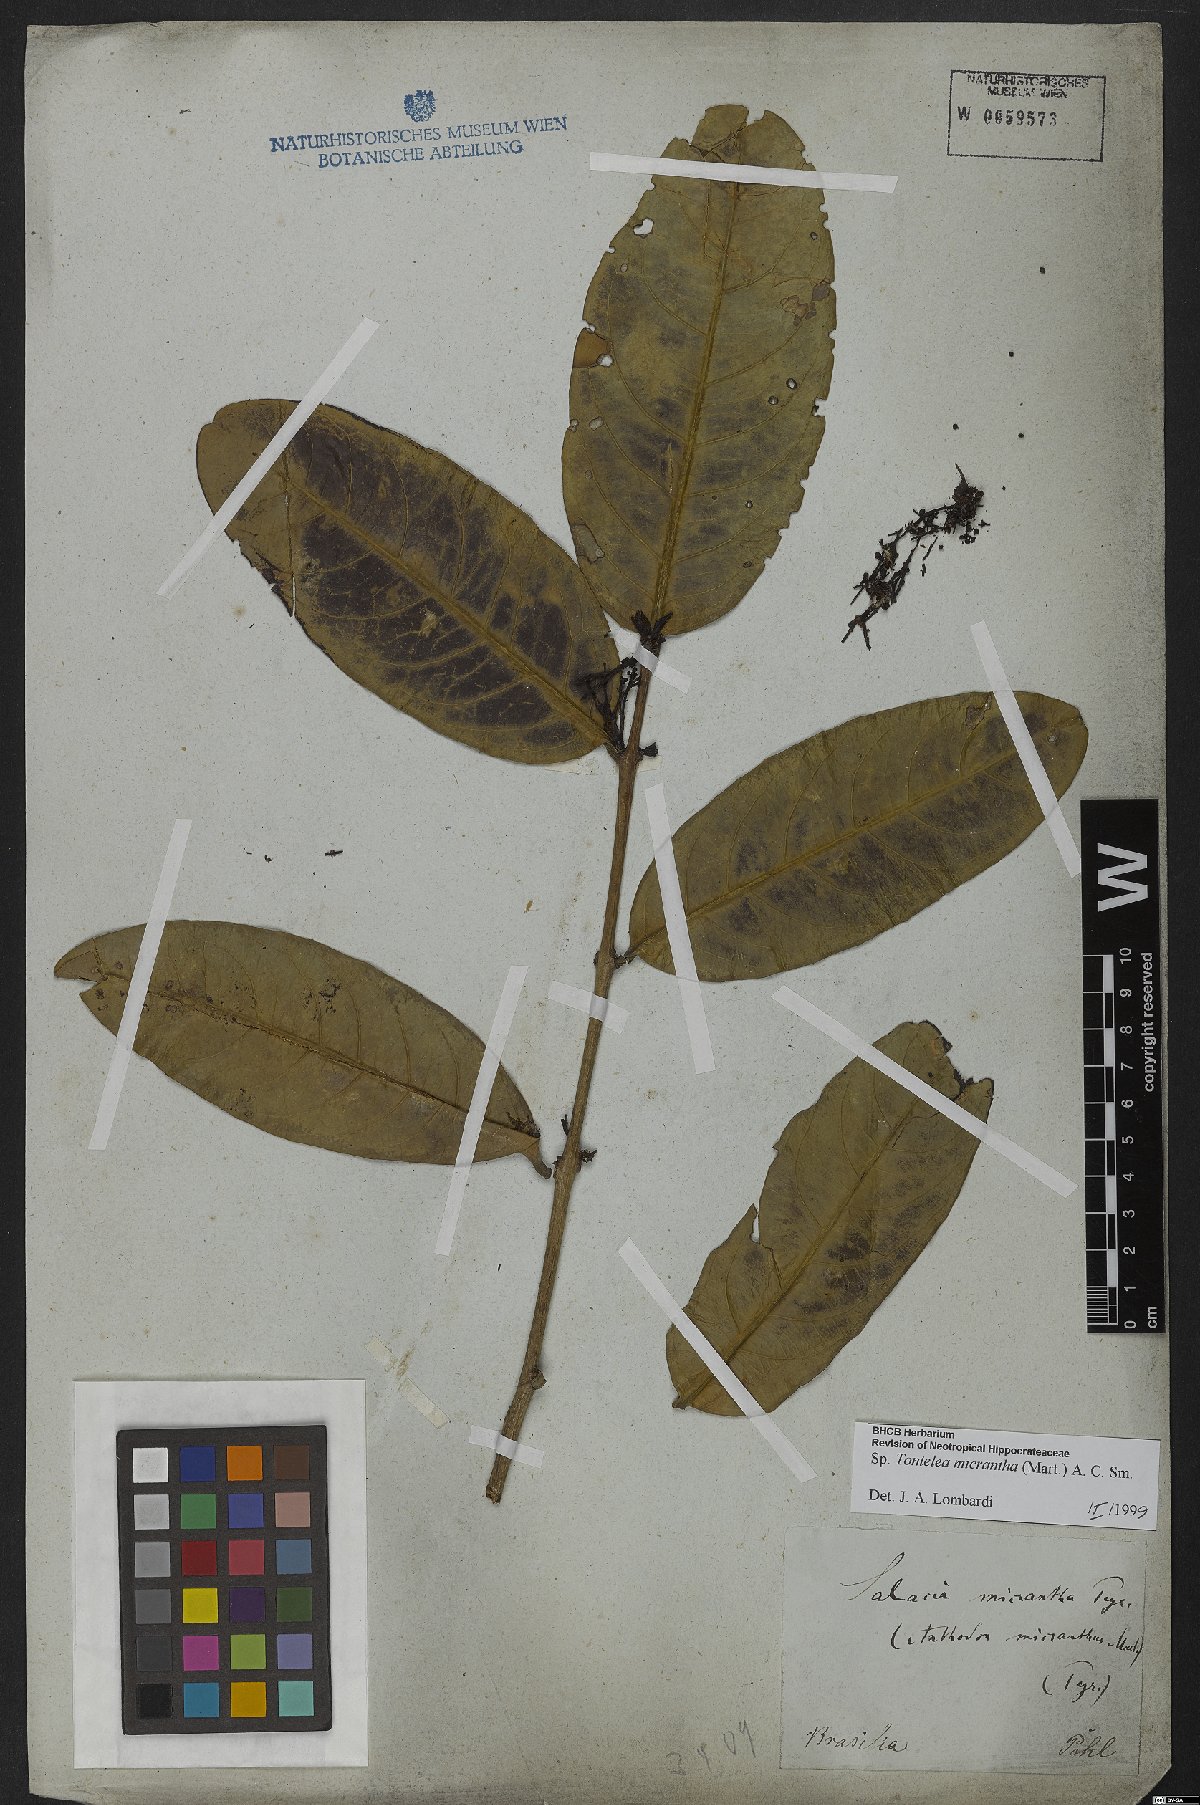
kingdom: Plantae
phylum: Tracheophyta
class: Magnoliopsida
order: Celastrales
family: Celastraceae
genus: Tontelea
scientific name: Tontelea micrantha
